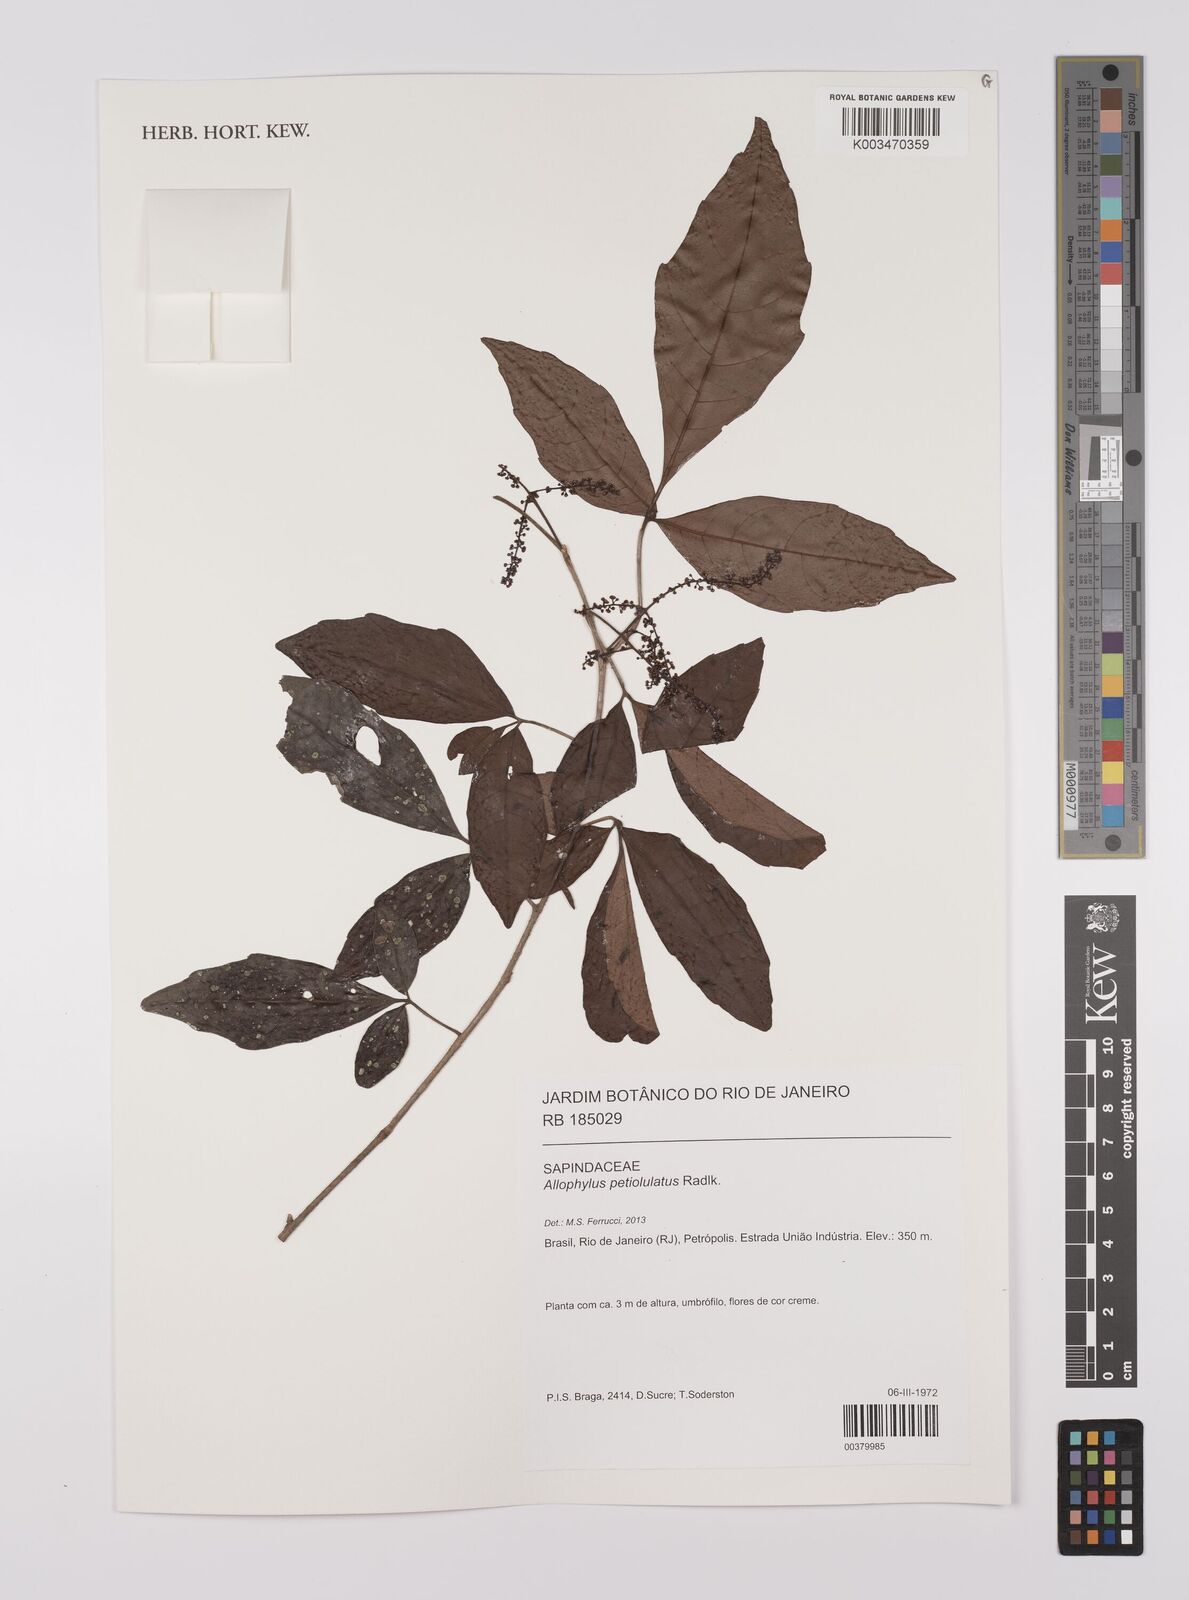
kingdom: Plantae
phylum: Tracheophyta
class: Magnoliopsida
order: Sapindales
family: Sapindaceae
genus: Allophylus
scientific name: Allophylus petiolulatus
